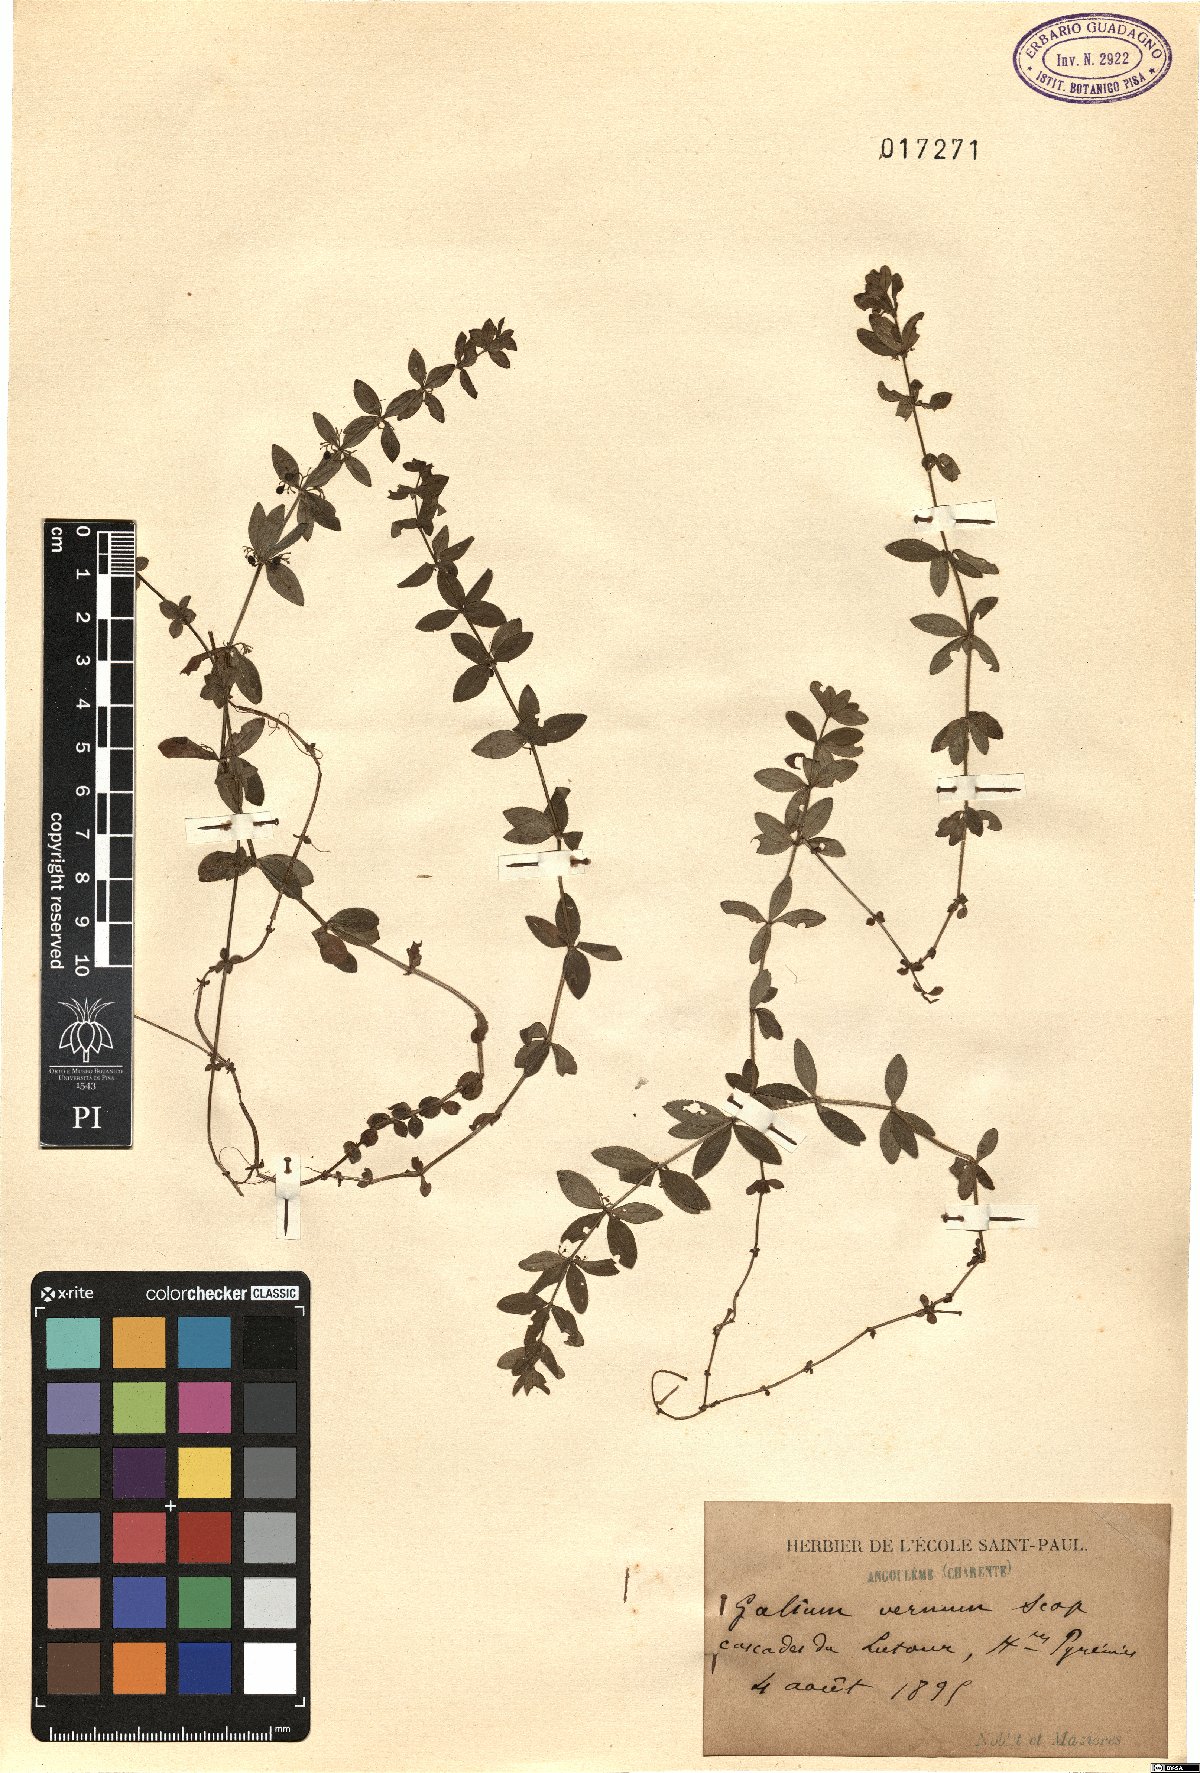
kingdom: Plantae
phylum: Tracheophyta
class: Magnoliopsida
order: Gentianales
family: Rubiaceae
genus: Cruciata
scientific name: Cruciata glabra
